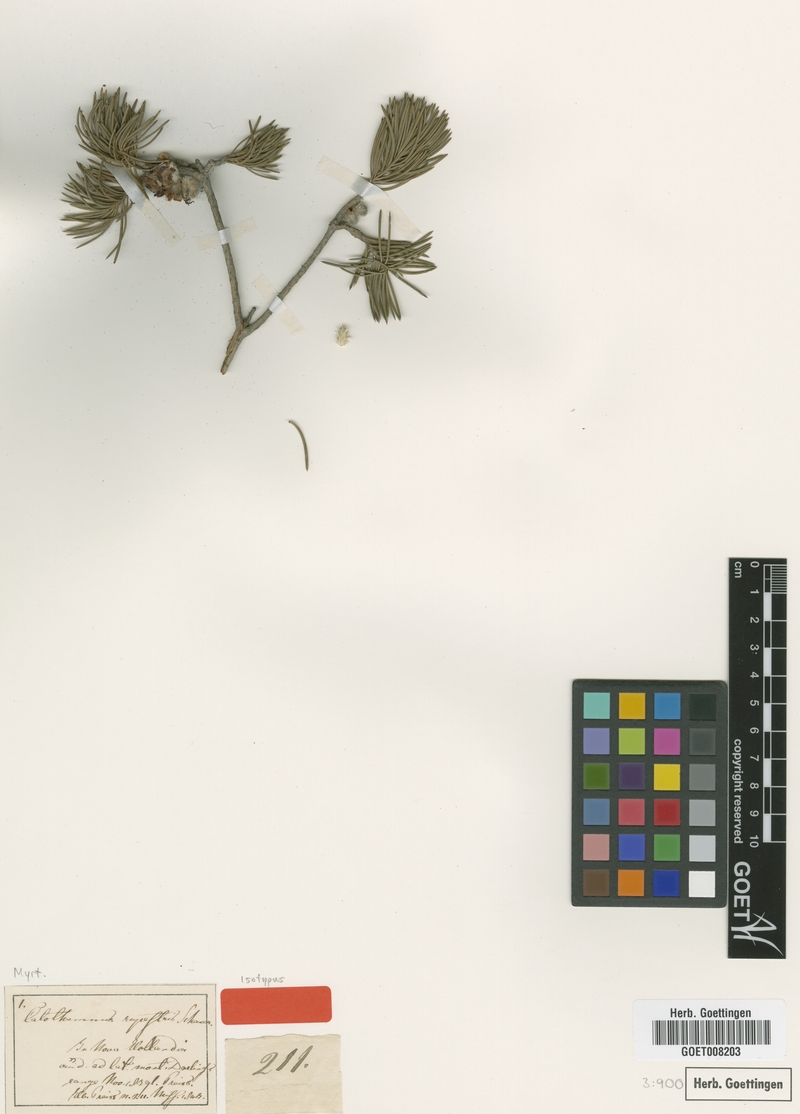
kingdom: Plantae
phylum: Tracheophyta
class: Magnoliopsida
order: Myrtales
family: Myrtaceae
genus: Melaleuca
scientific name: Melaleuca rupestris
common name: Cliff net-bush
